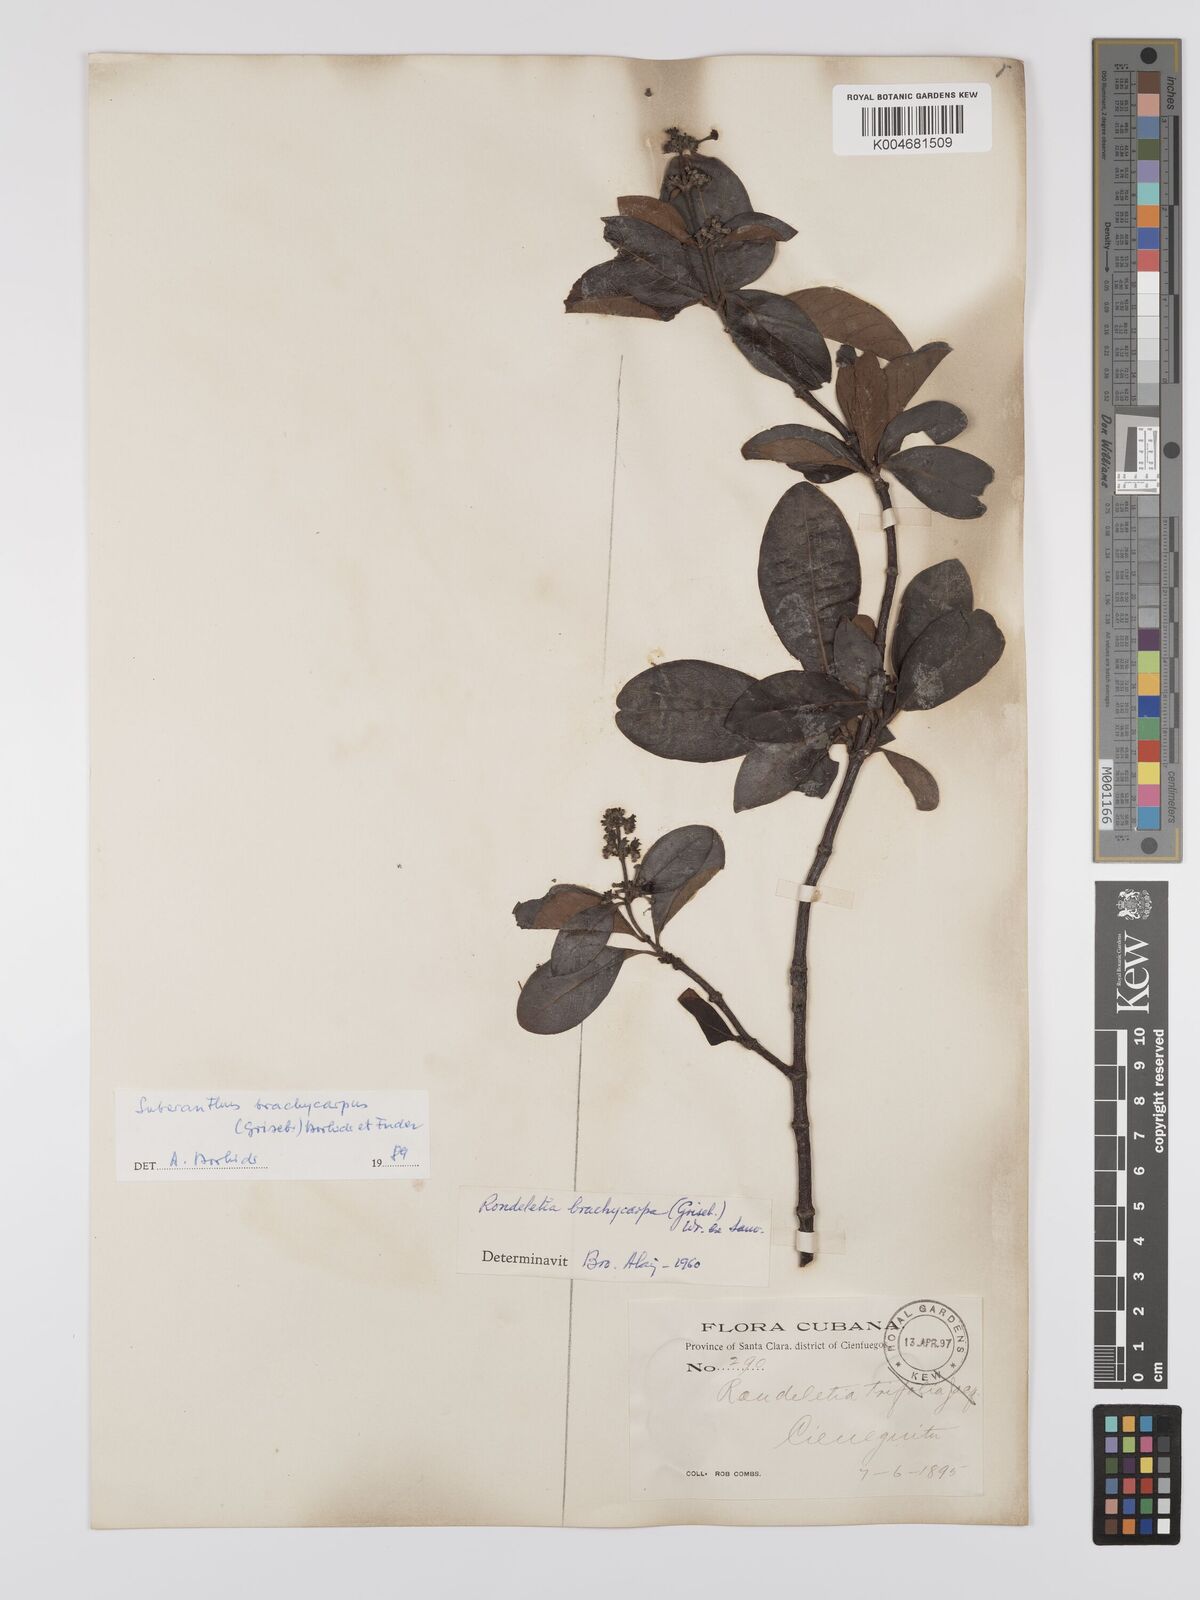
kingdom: Plantae
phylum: Tracheophyta
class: Magnoliopsida
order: Gentianales
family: Rubiaceae
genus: Suberanthus
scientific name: Suberanthus brachycarpus
